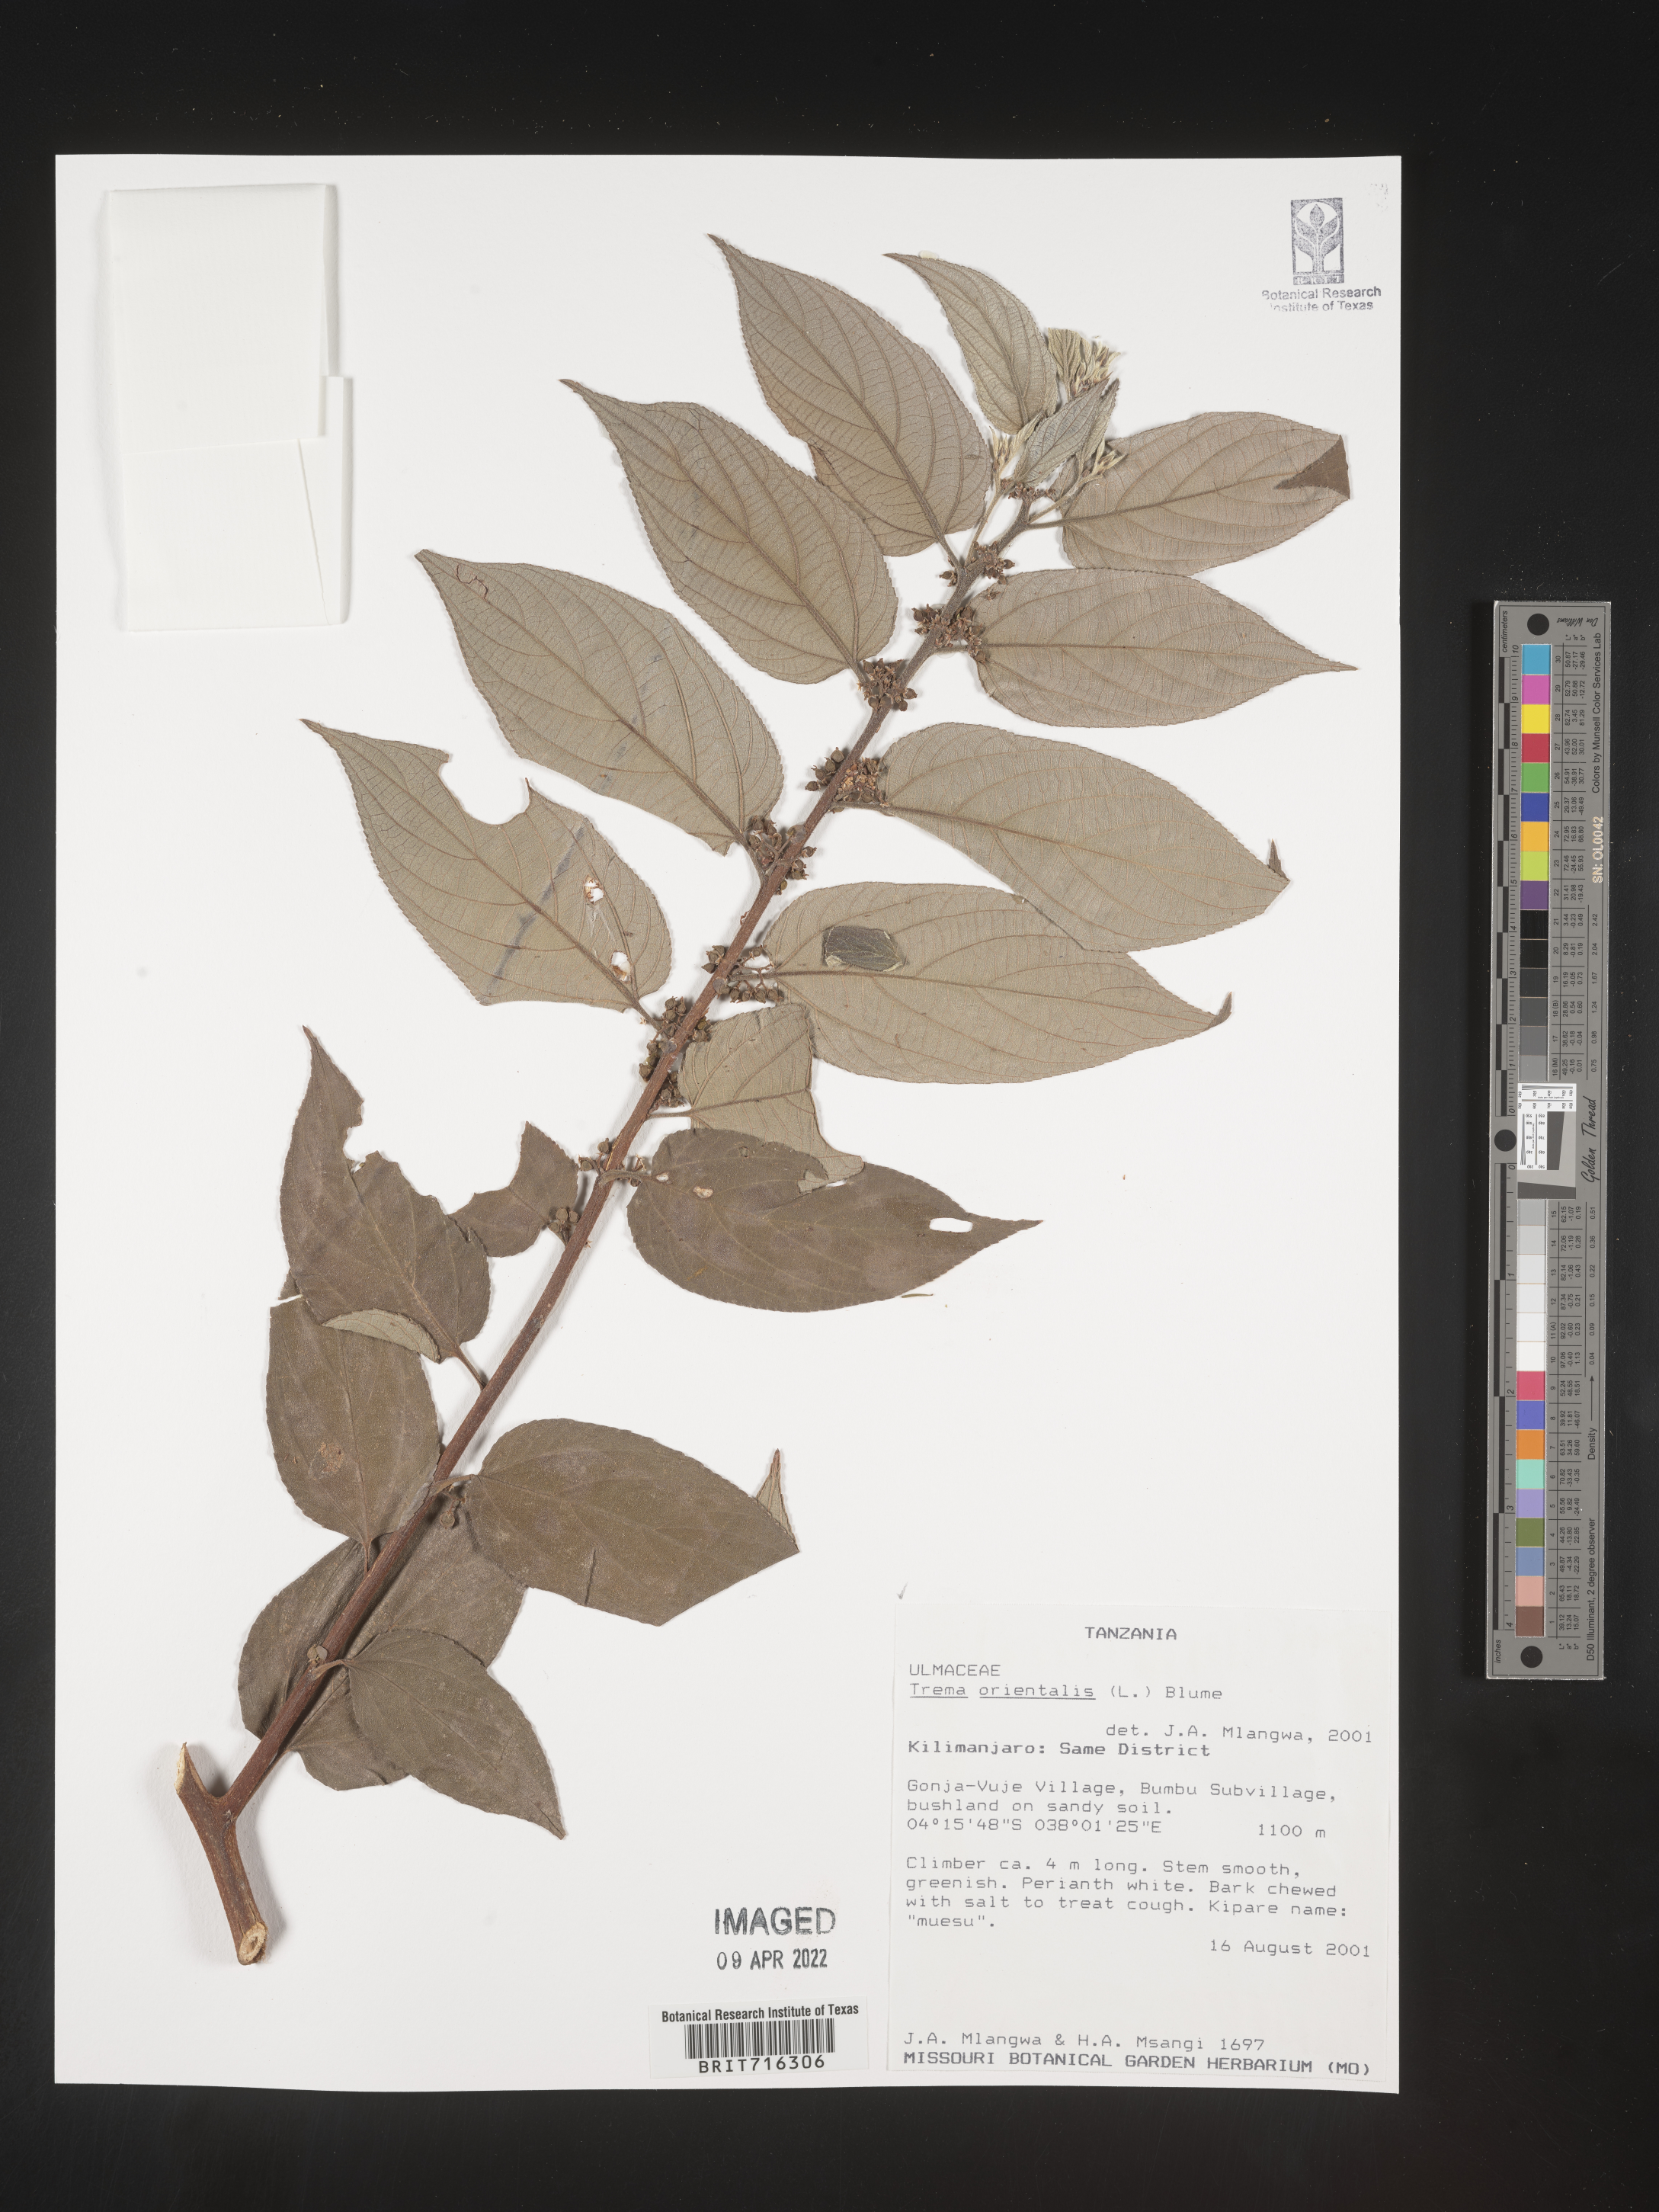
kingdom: Plantae
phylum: Tracheophyta
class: Magnoliopsida
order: Rosales
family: Cannabaceae
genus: Trema
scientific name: Trema
